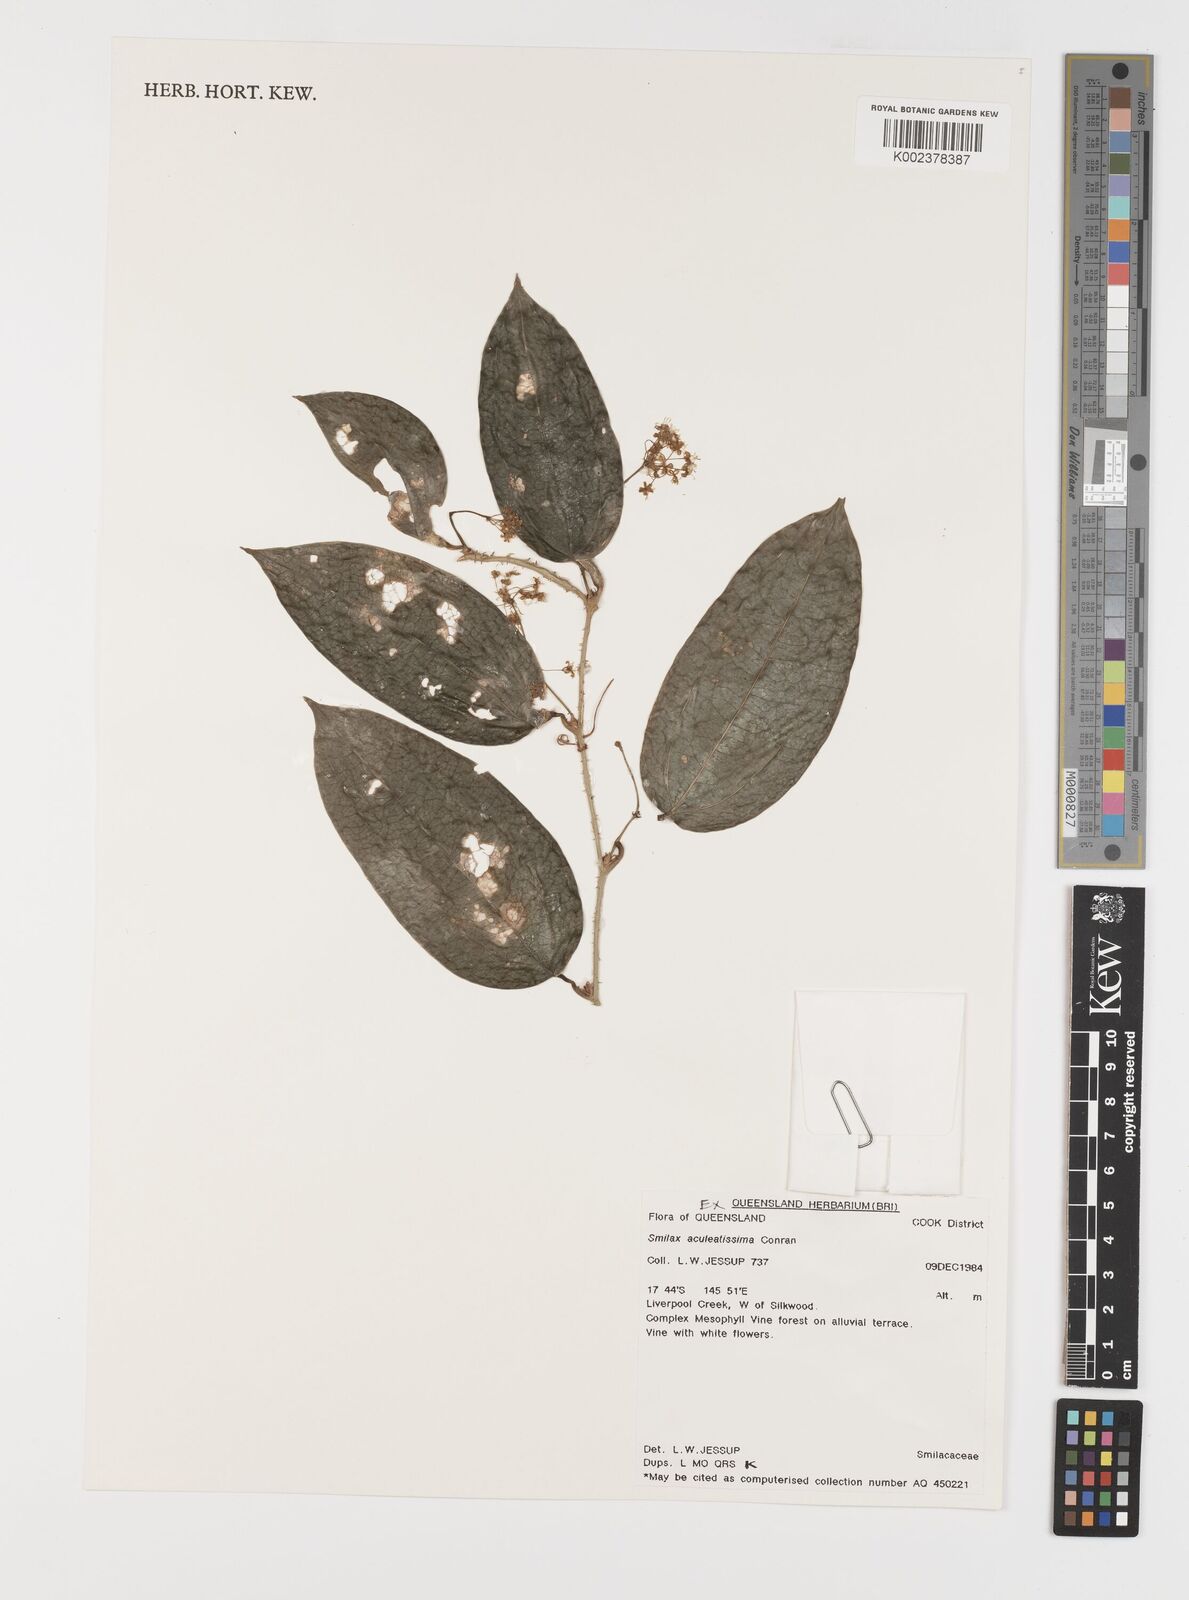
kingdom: Plantae
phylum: Tracheophyta
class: Liliopsida
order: Liliales
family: Smilacaceae
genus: Smilax
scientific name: Smilax aculeatissima
